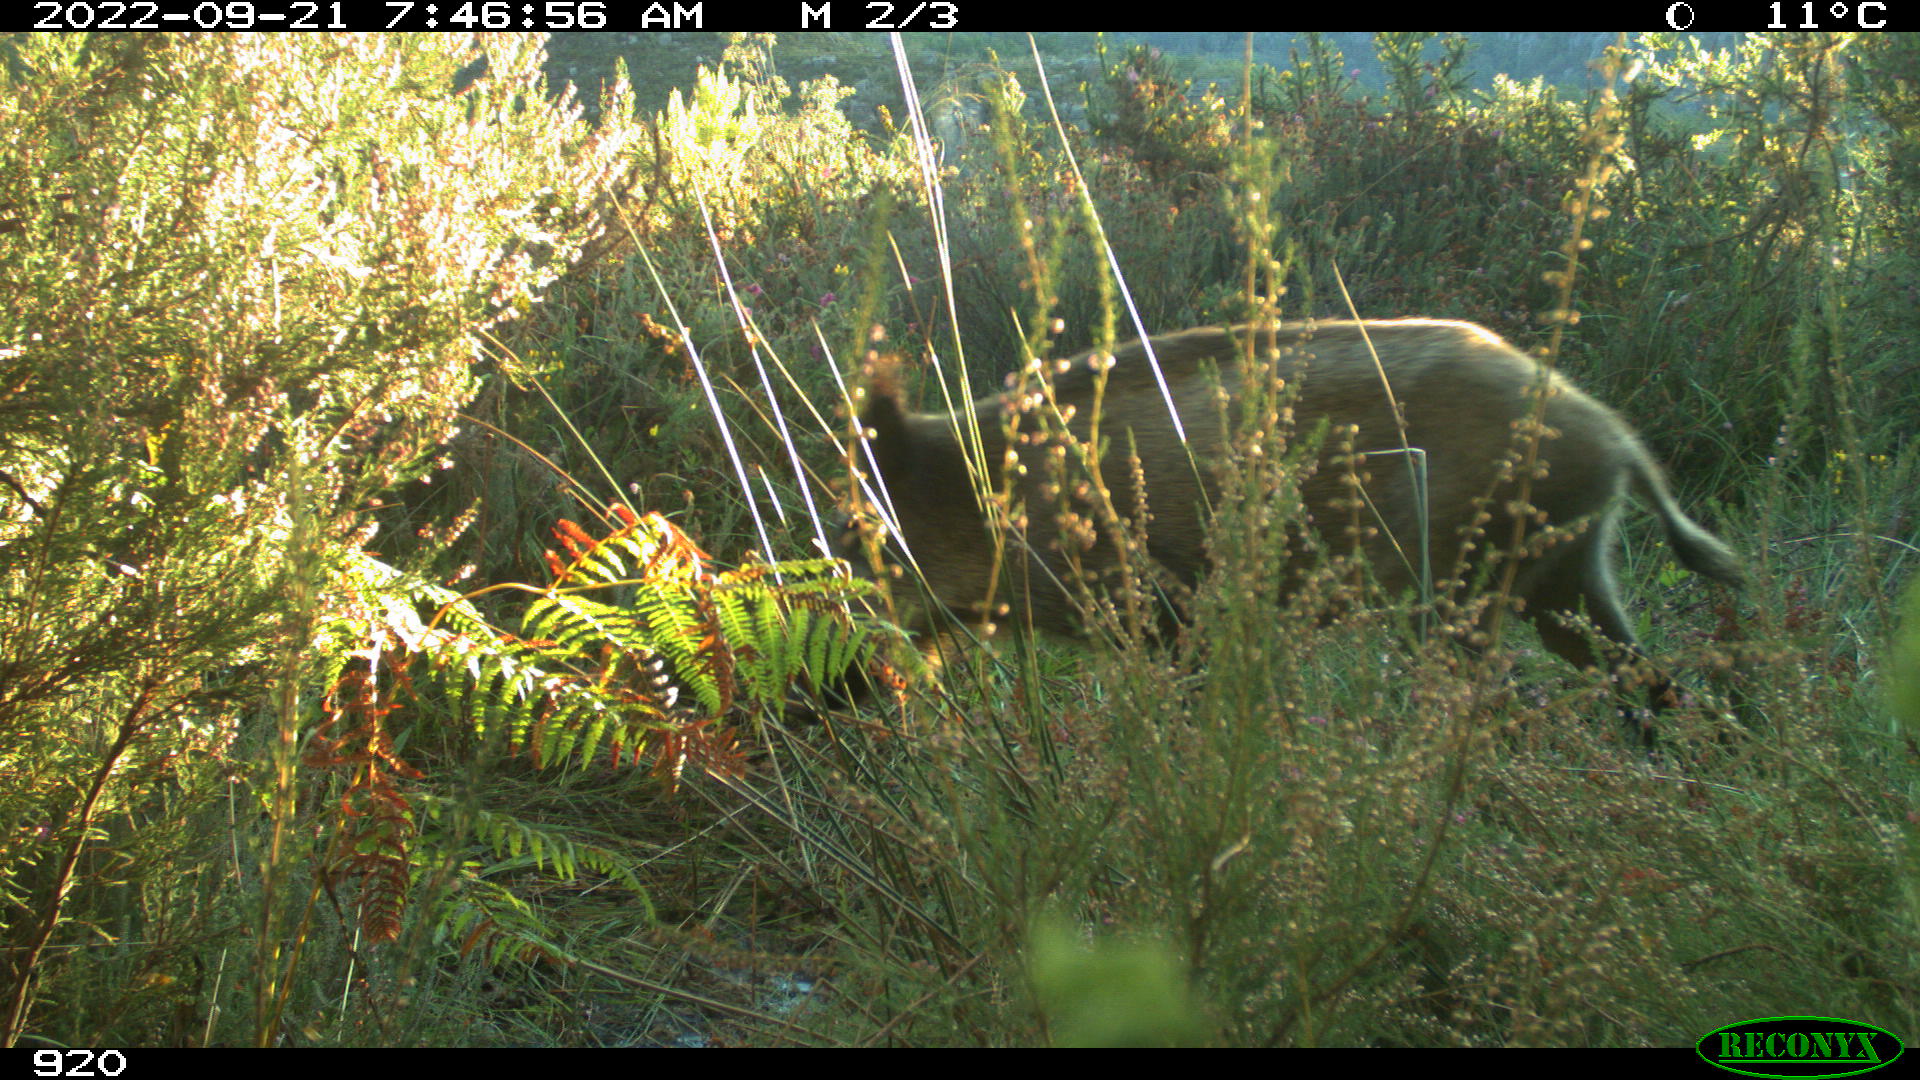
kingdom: Animalia
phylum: Chordata
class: Mammalia
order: Artiodactyla
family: Suidae
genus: Sus
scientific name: Sus scrofa
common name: Wild boar
